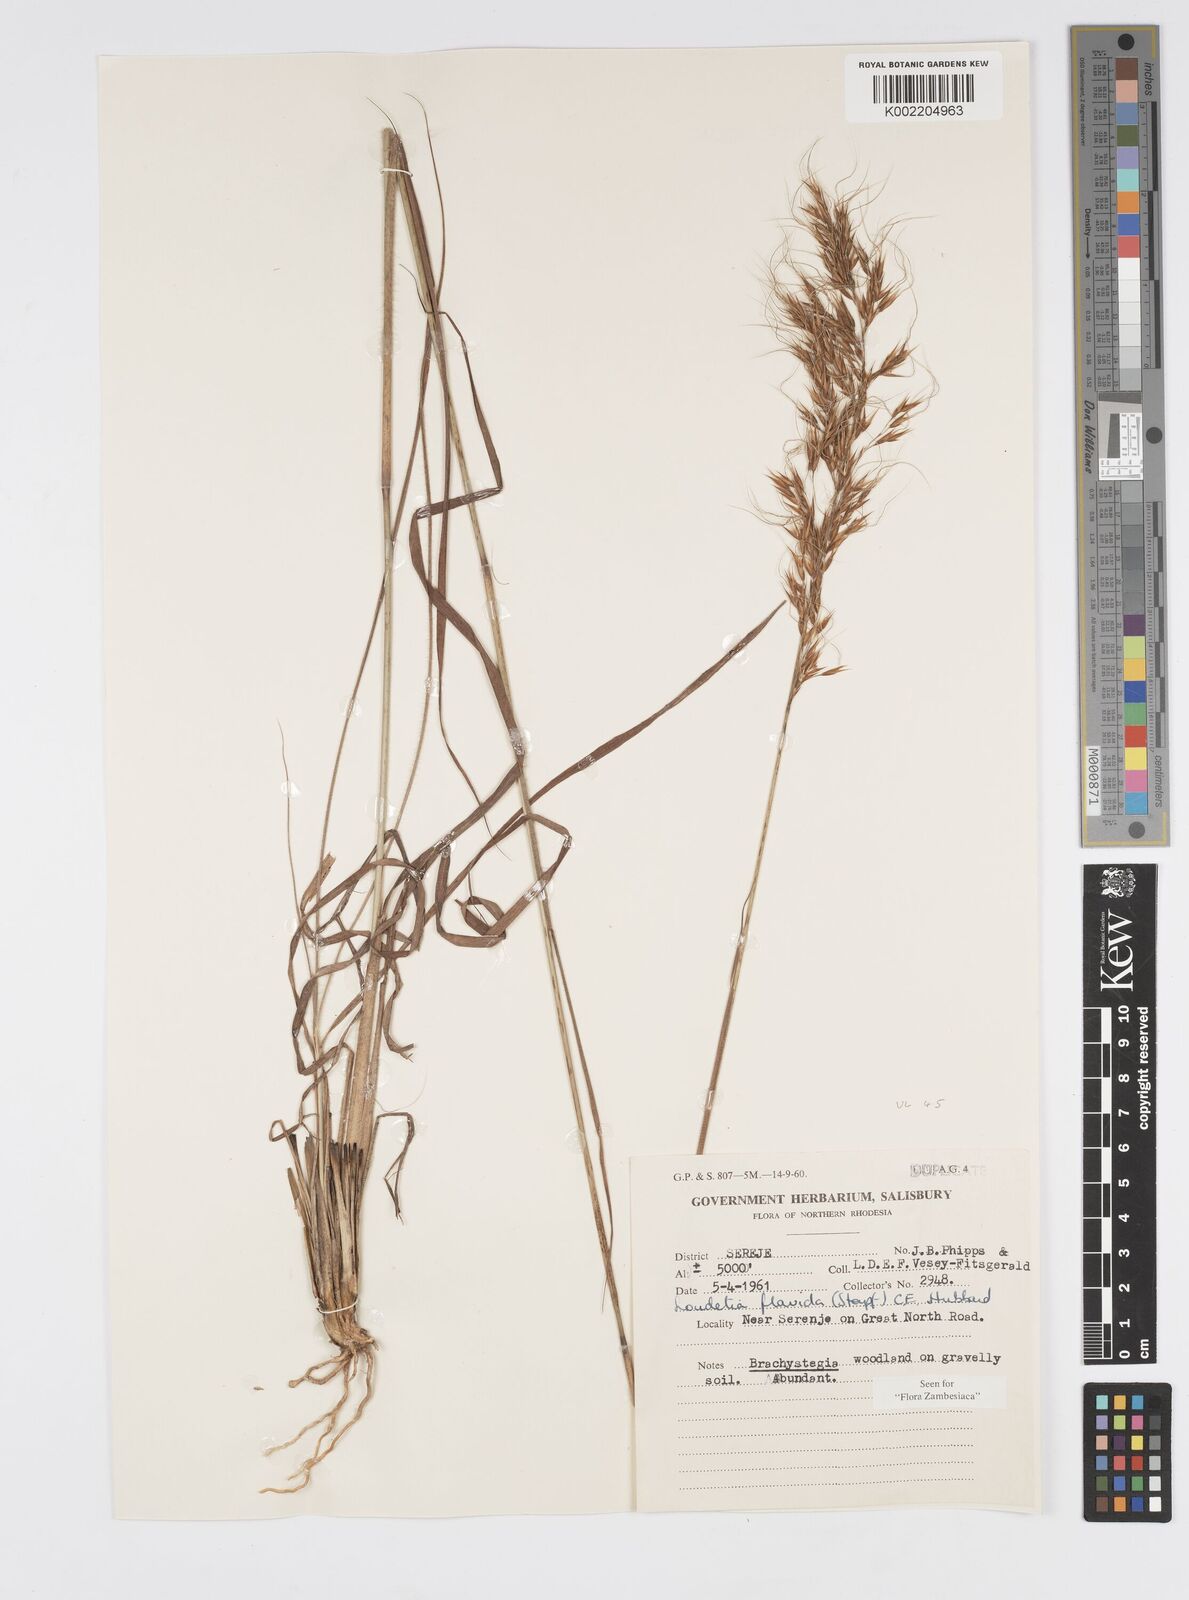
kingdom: Plantae
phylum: Tracheophyta
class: Liliopsida
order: Poales
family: Poaceae
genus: Loudetia
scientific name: Loudetia flavida
